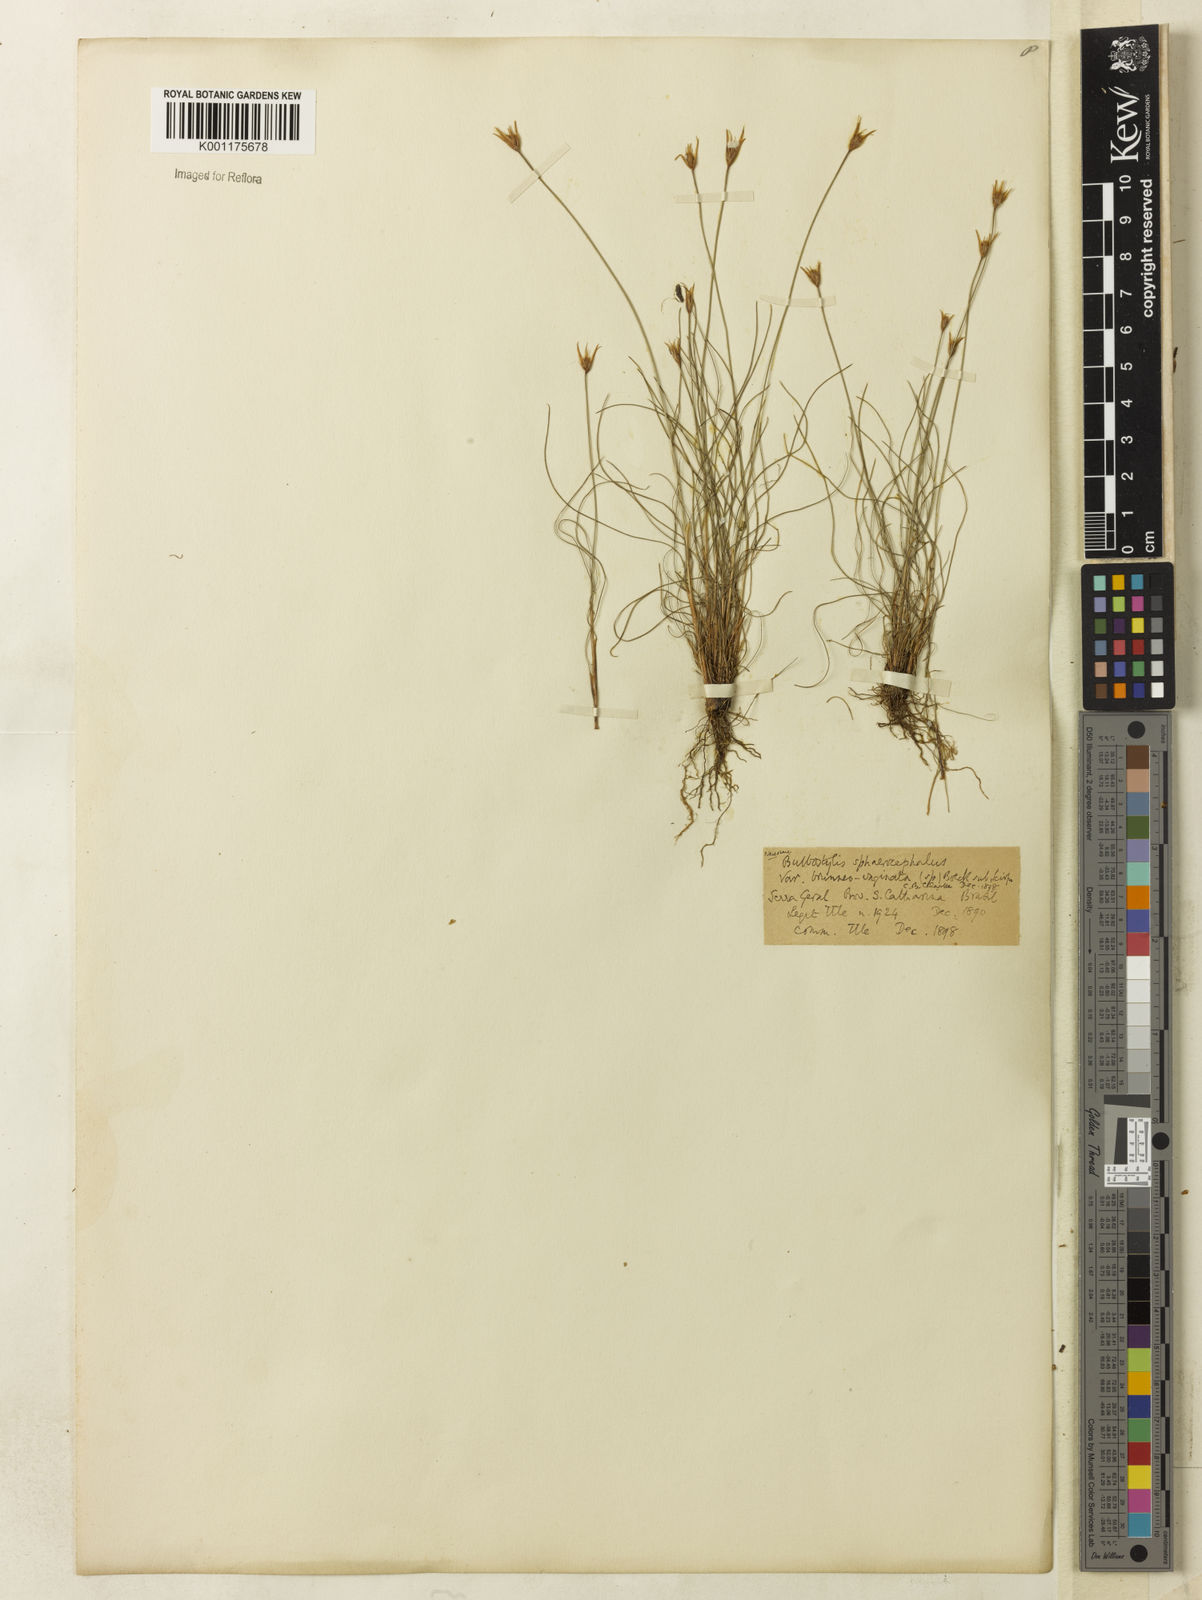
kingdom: Plantae
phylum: Tracheophyta
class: Liliopsida
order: Poales
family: Cyperaceae
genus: Bulbostylis
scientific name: Bulbostylis sphaerocephala
